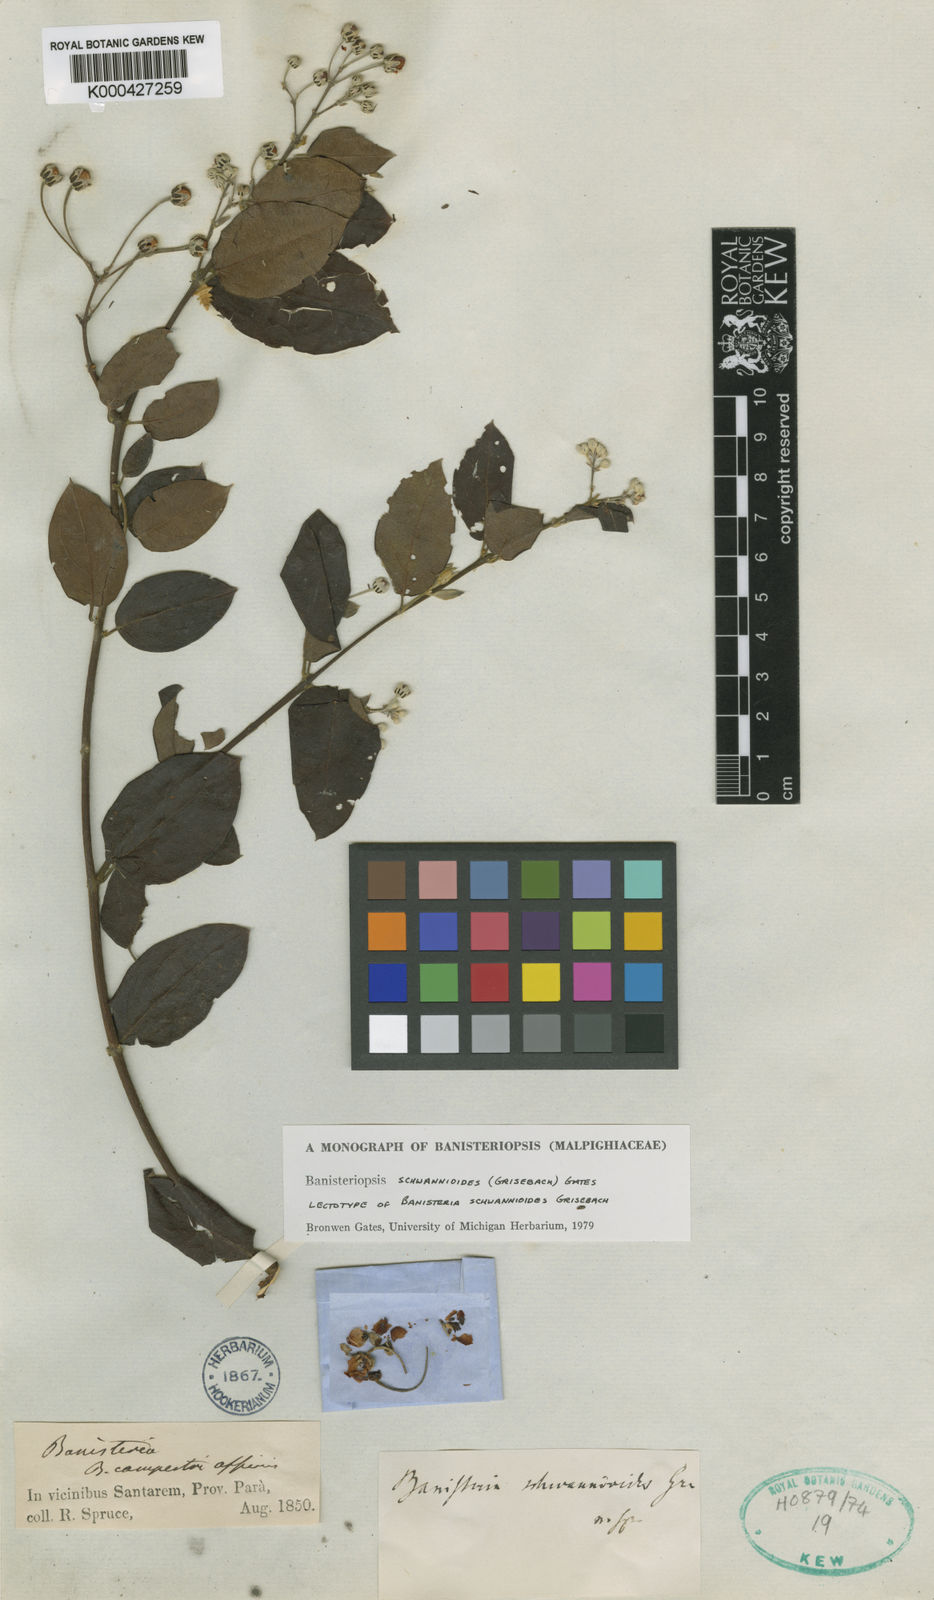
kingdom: Plantae
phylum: Tracheophyta
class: Magnoliopsida
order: Malpighiales
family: Malpighiaceae
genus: Banisteriopsis
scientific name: Banisteriopsis schwannioides
